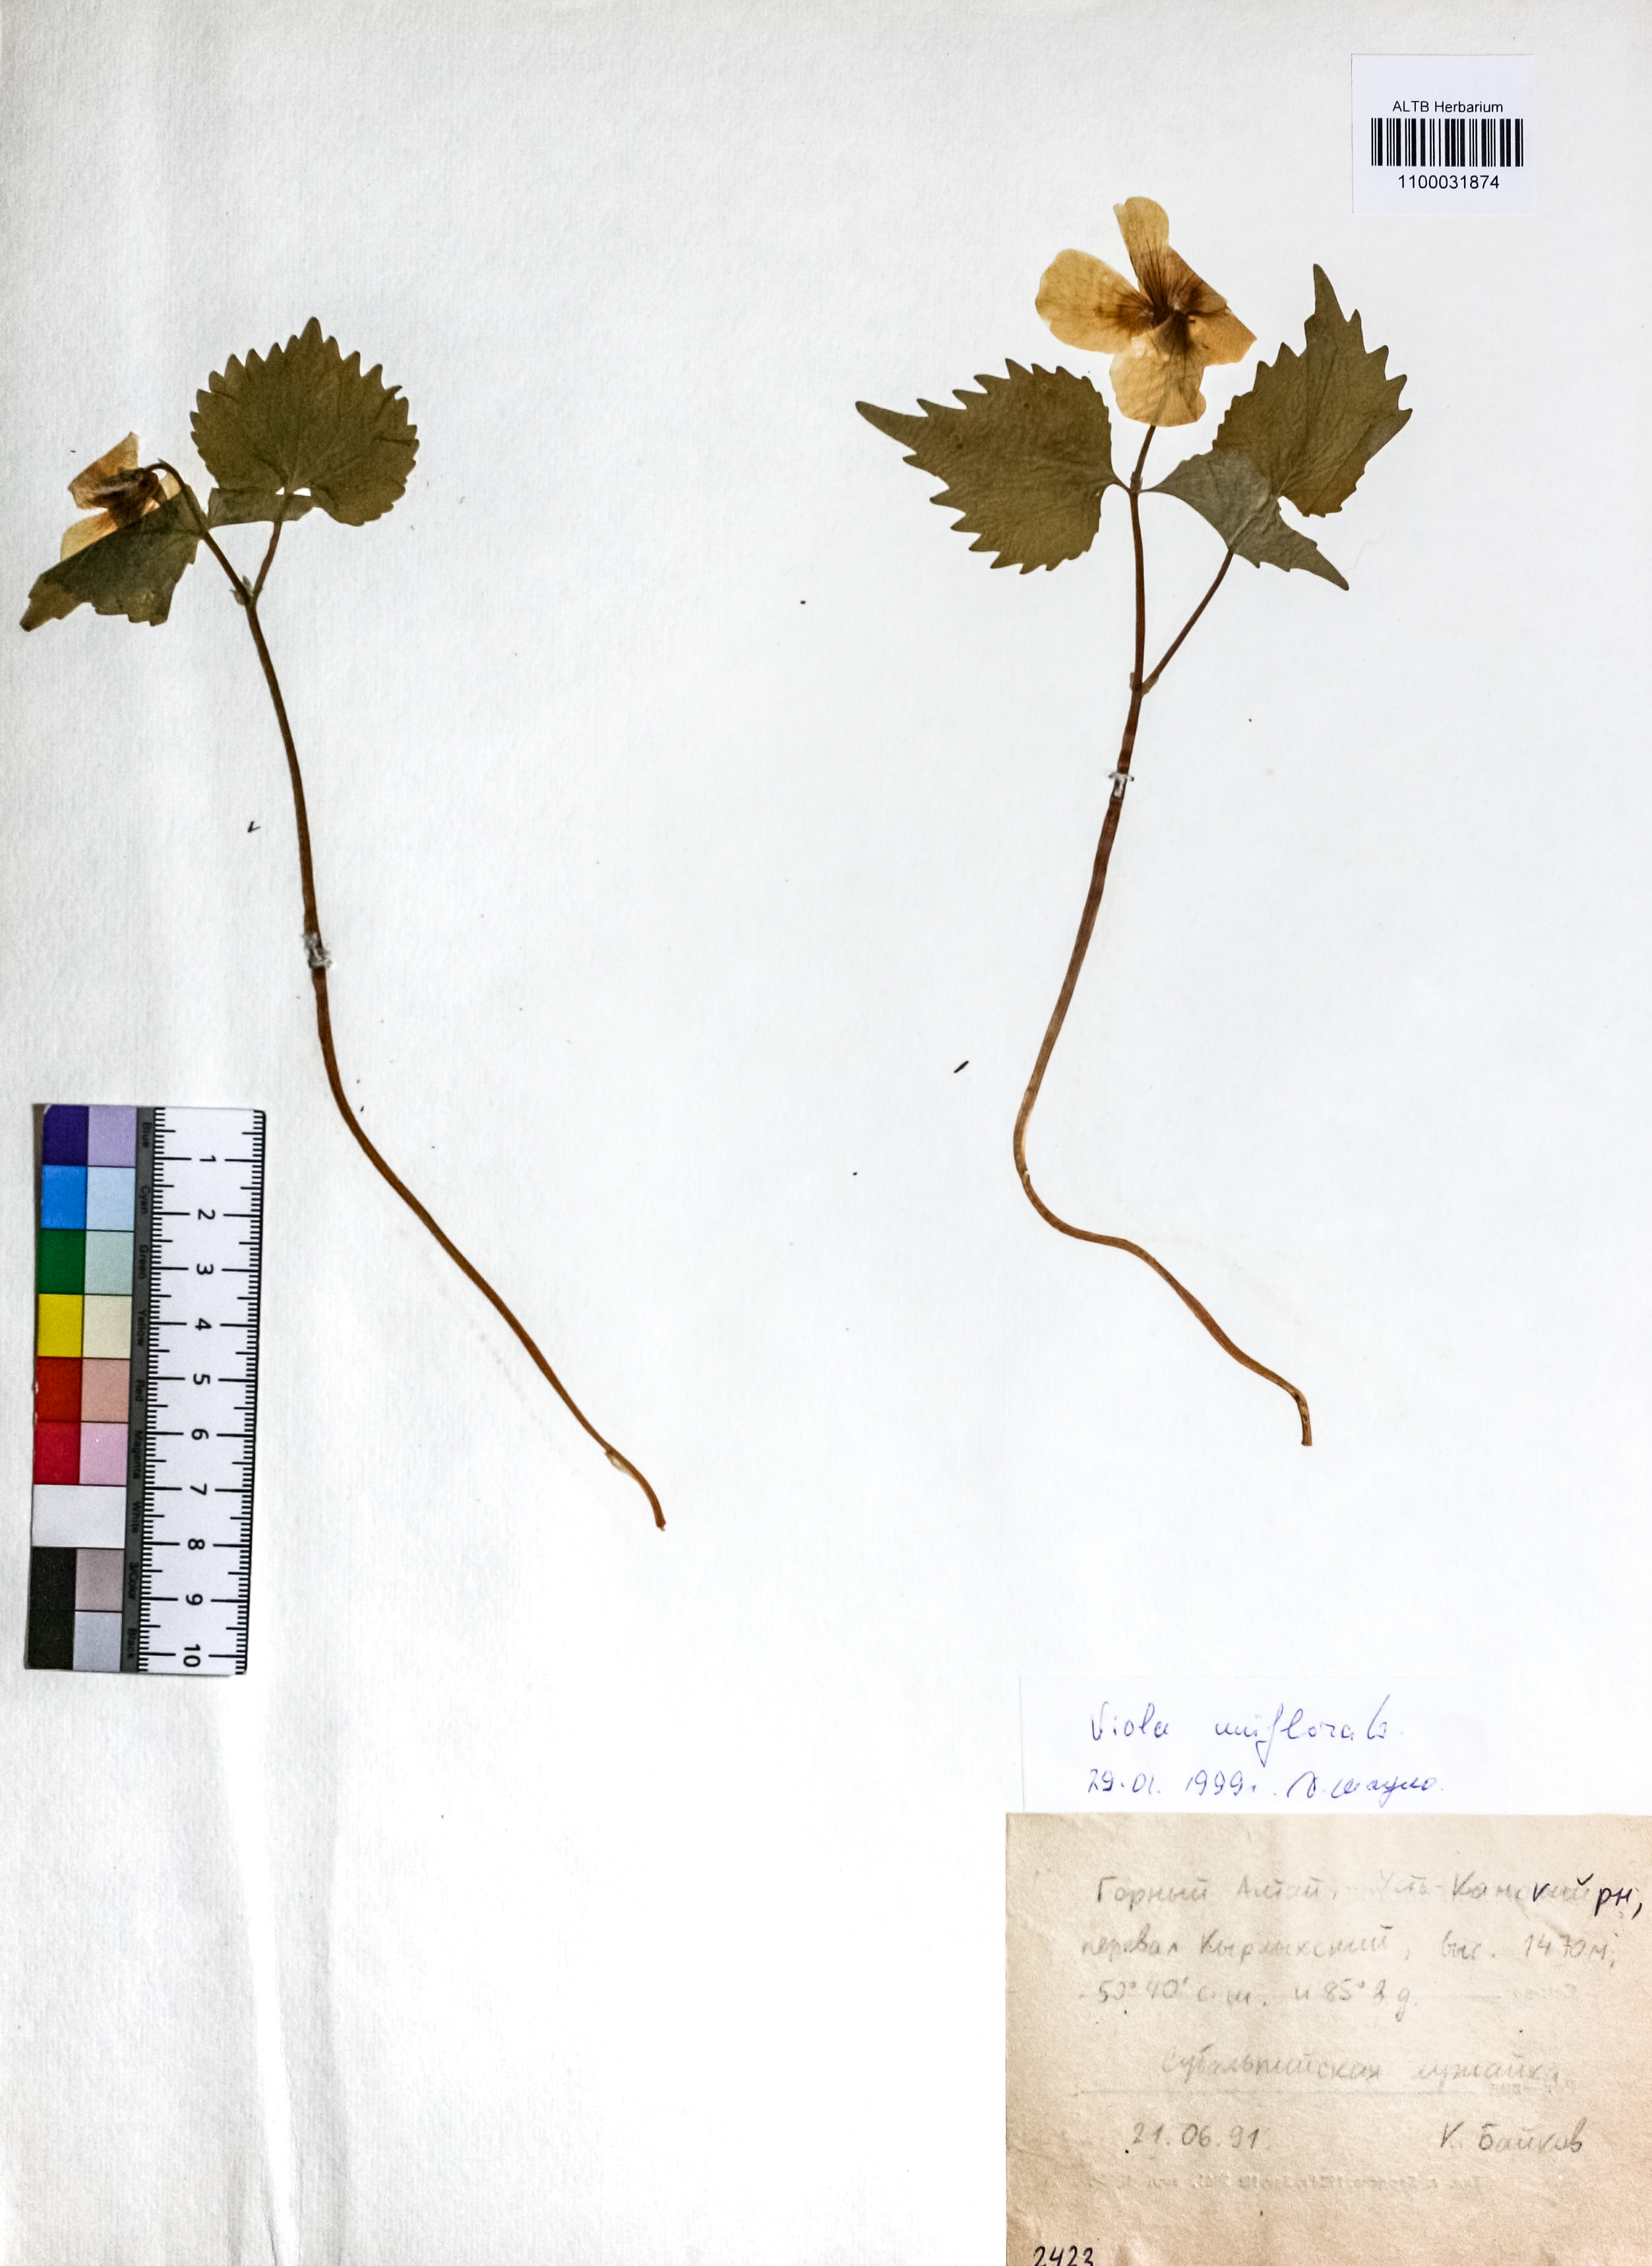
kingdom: Plantae
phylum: Tracheophyta
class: Magnoliopsida
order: Malpighiales
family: Violaceae
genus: Viola
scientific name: Viola uniflora
